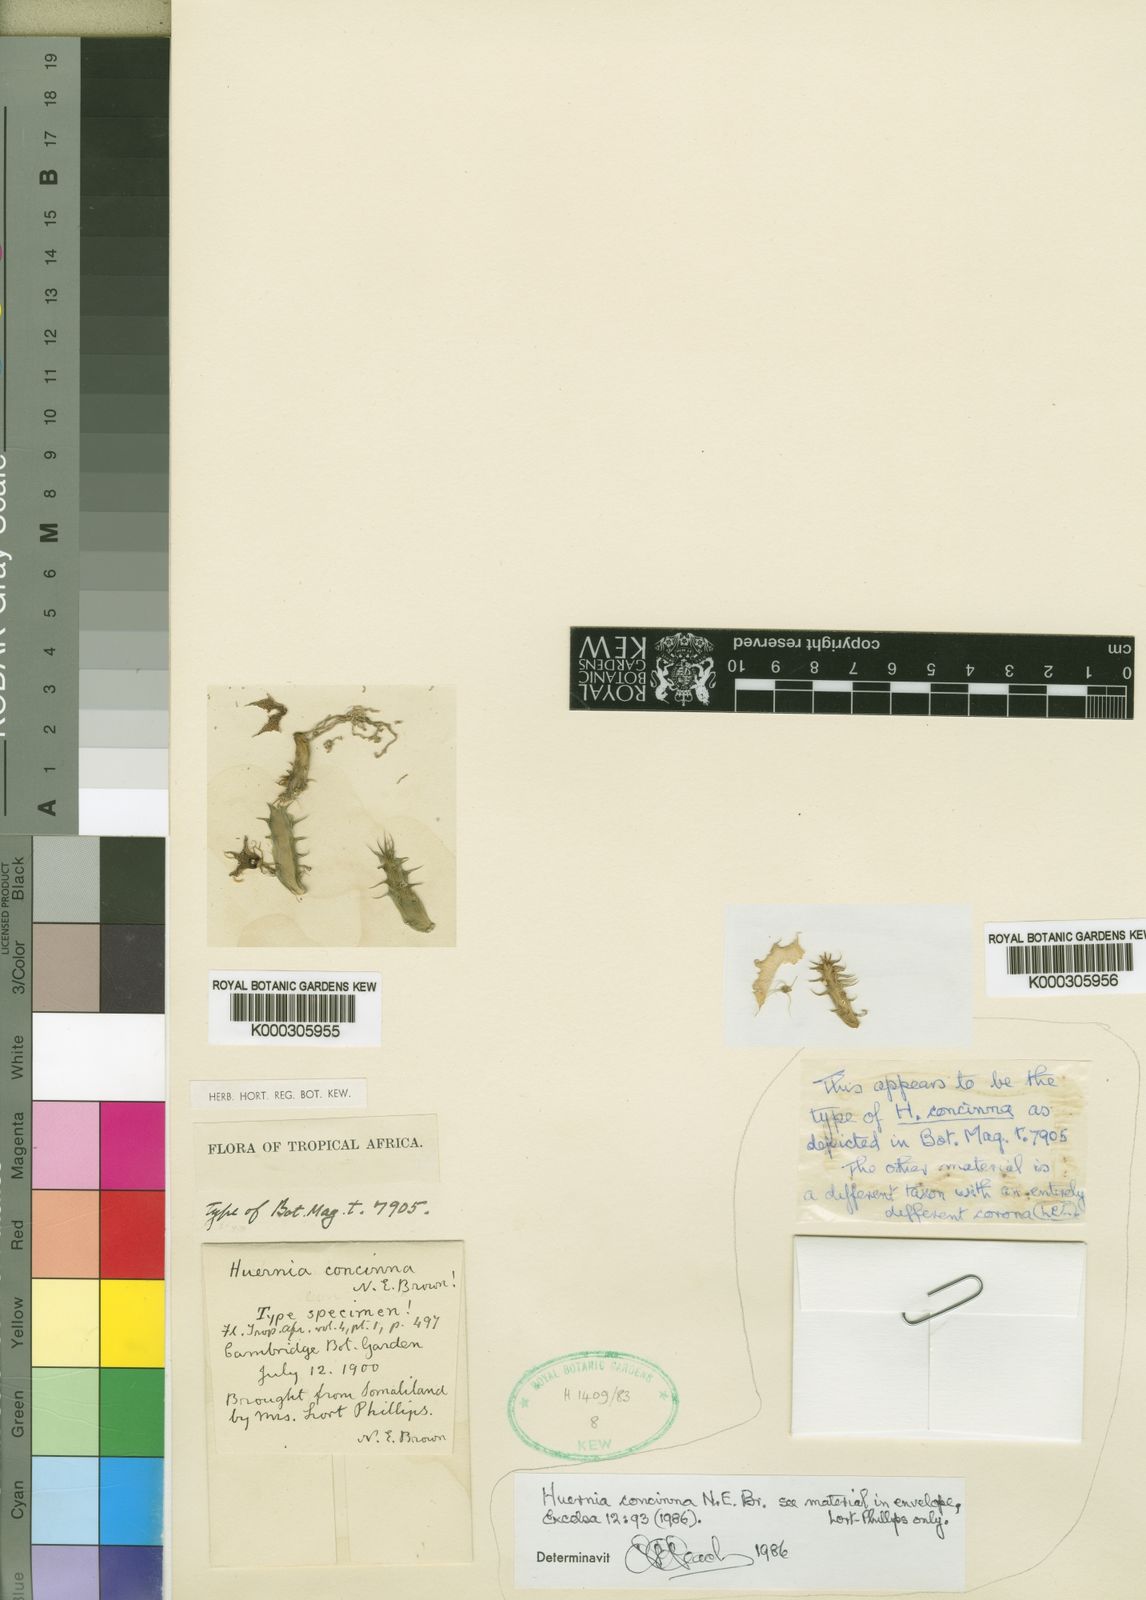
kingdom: Plantae
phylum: Tracheophyta
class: Magnoliopsida
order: Gentianales
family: Apocynaceae
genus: Ceropegia
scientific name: Ceropegia concinna
